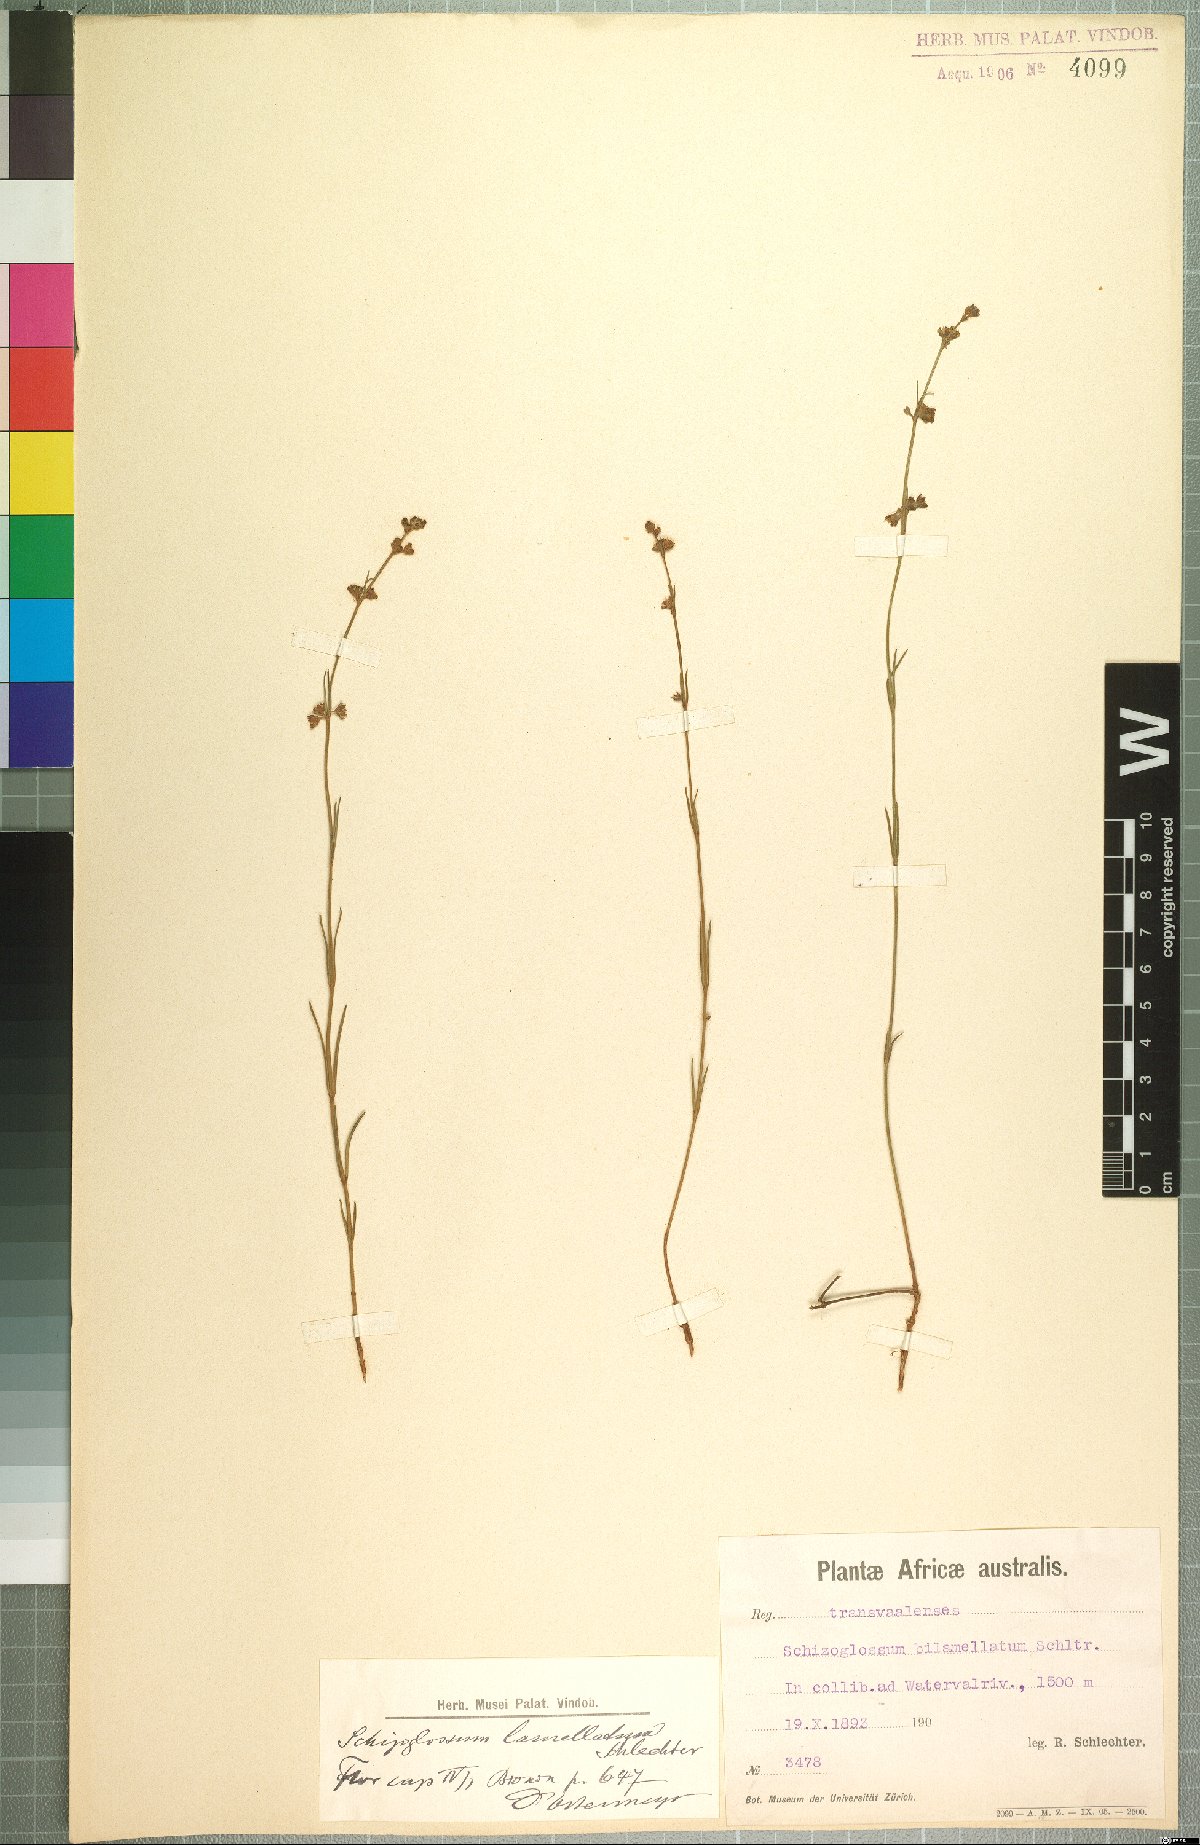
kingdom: Plantae
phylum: Tracheophyta
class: Magnoliopsida
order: Gentianales
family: Apocynaceae
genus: Aspidoglossum
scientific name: Aspidoglossum
